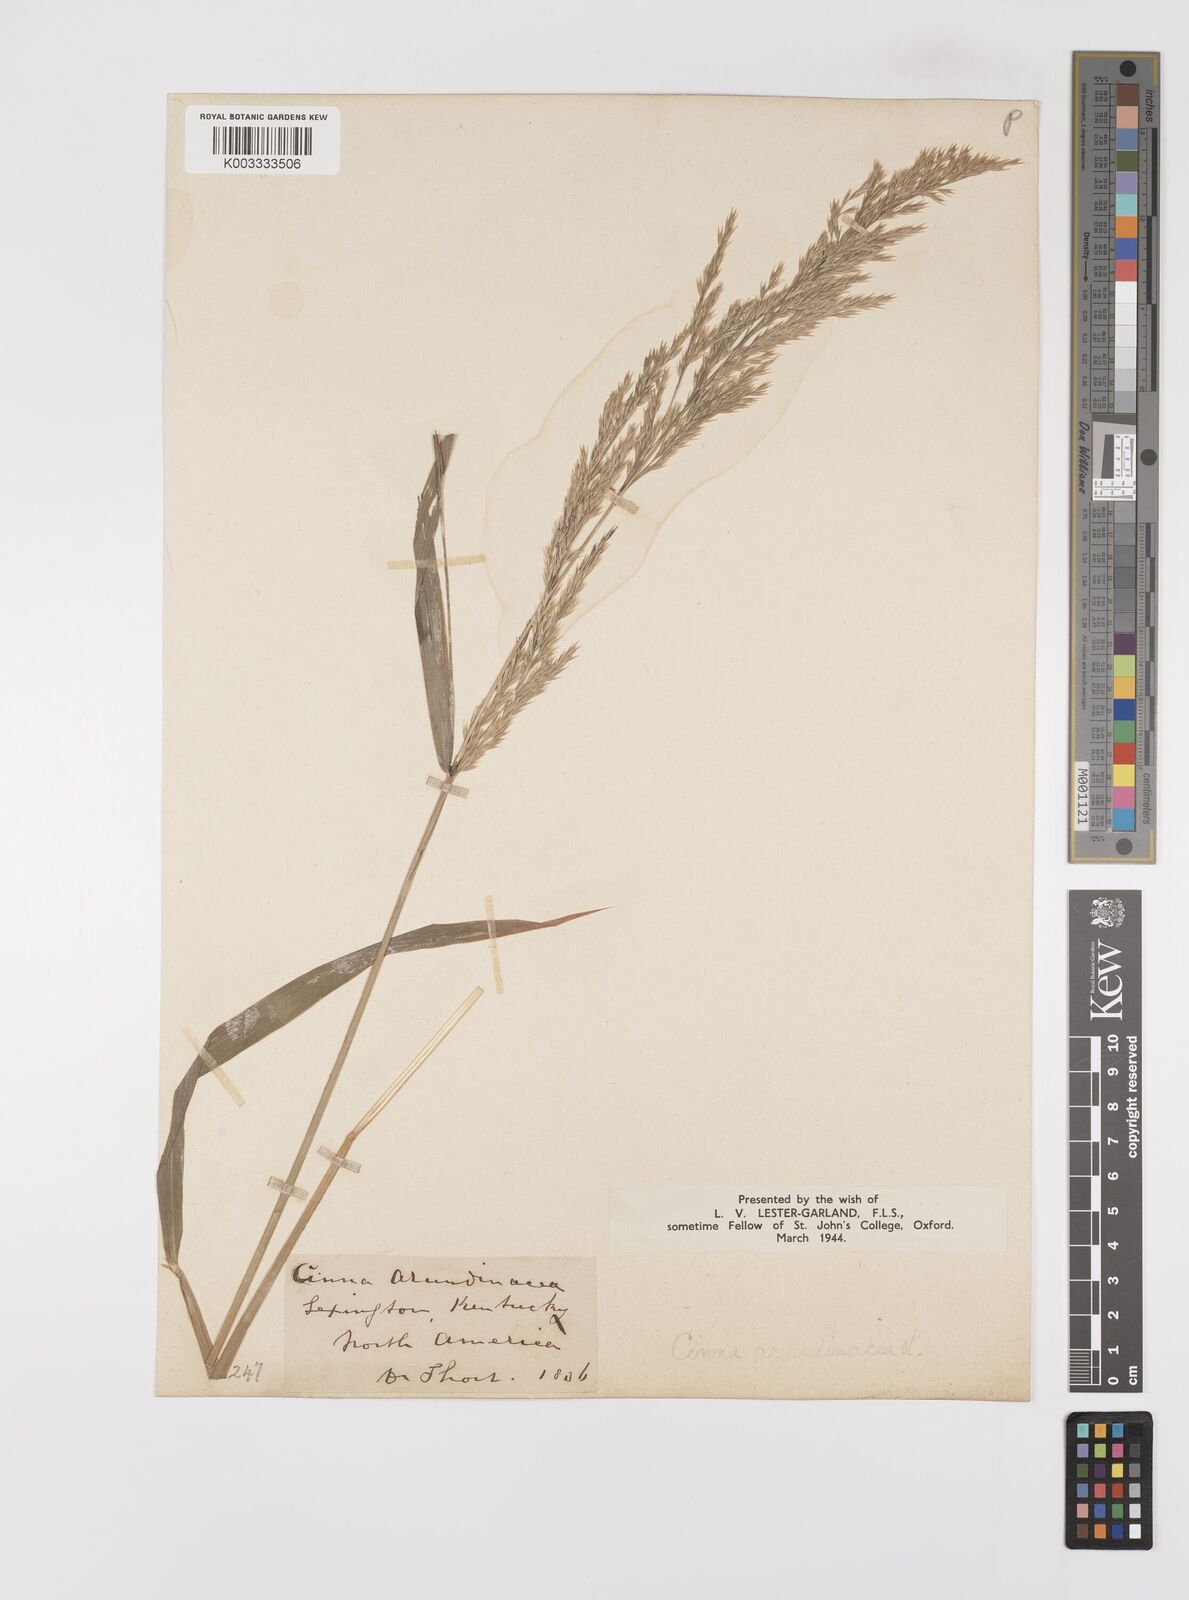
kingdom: Plantae
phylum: Tracheophyta
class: Liliopsida
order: Poales
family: Poaceae
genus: Cinna
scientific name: Cinna
